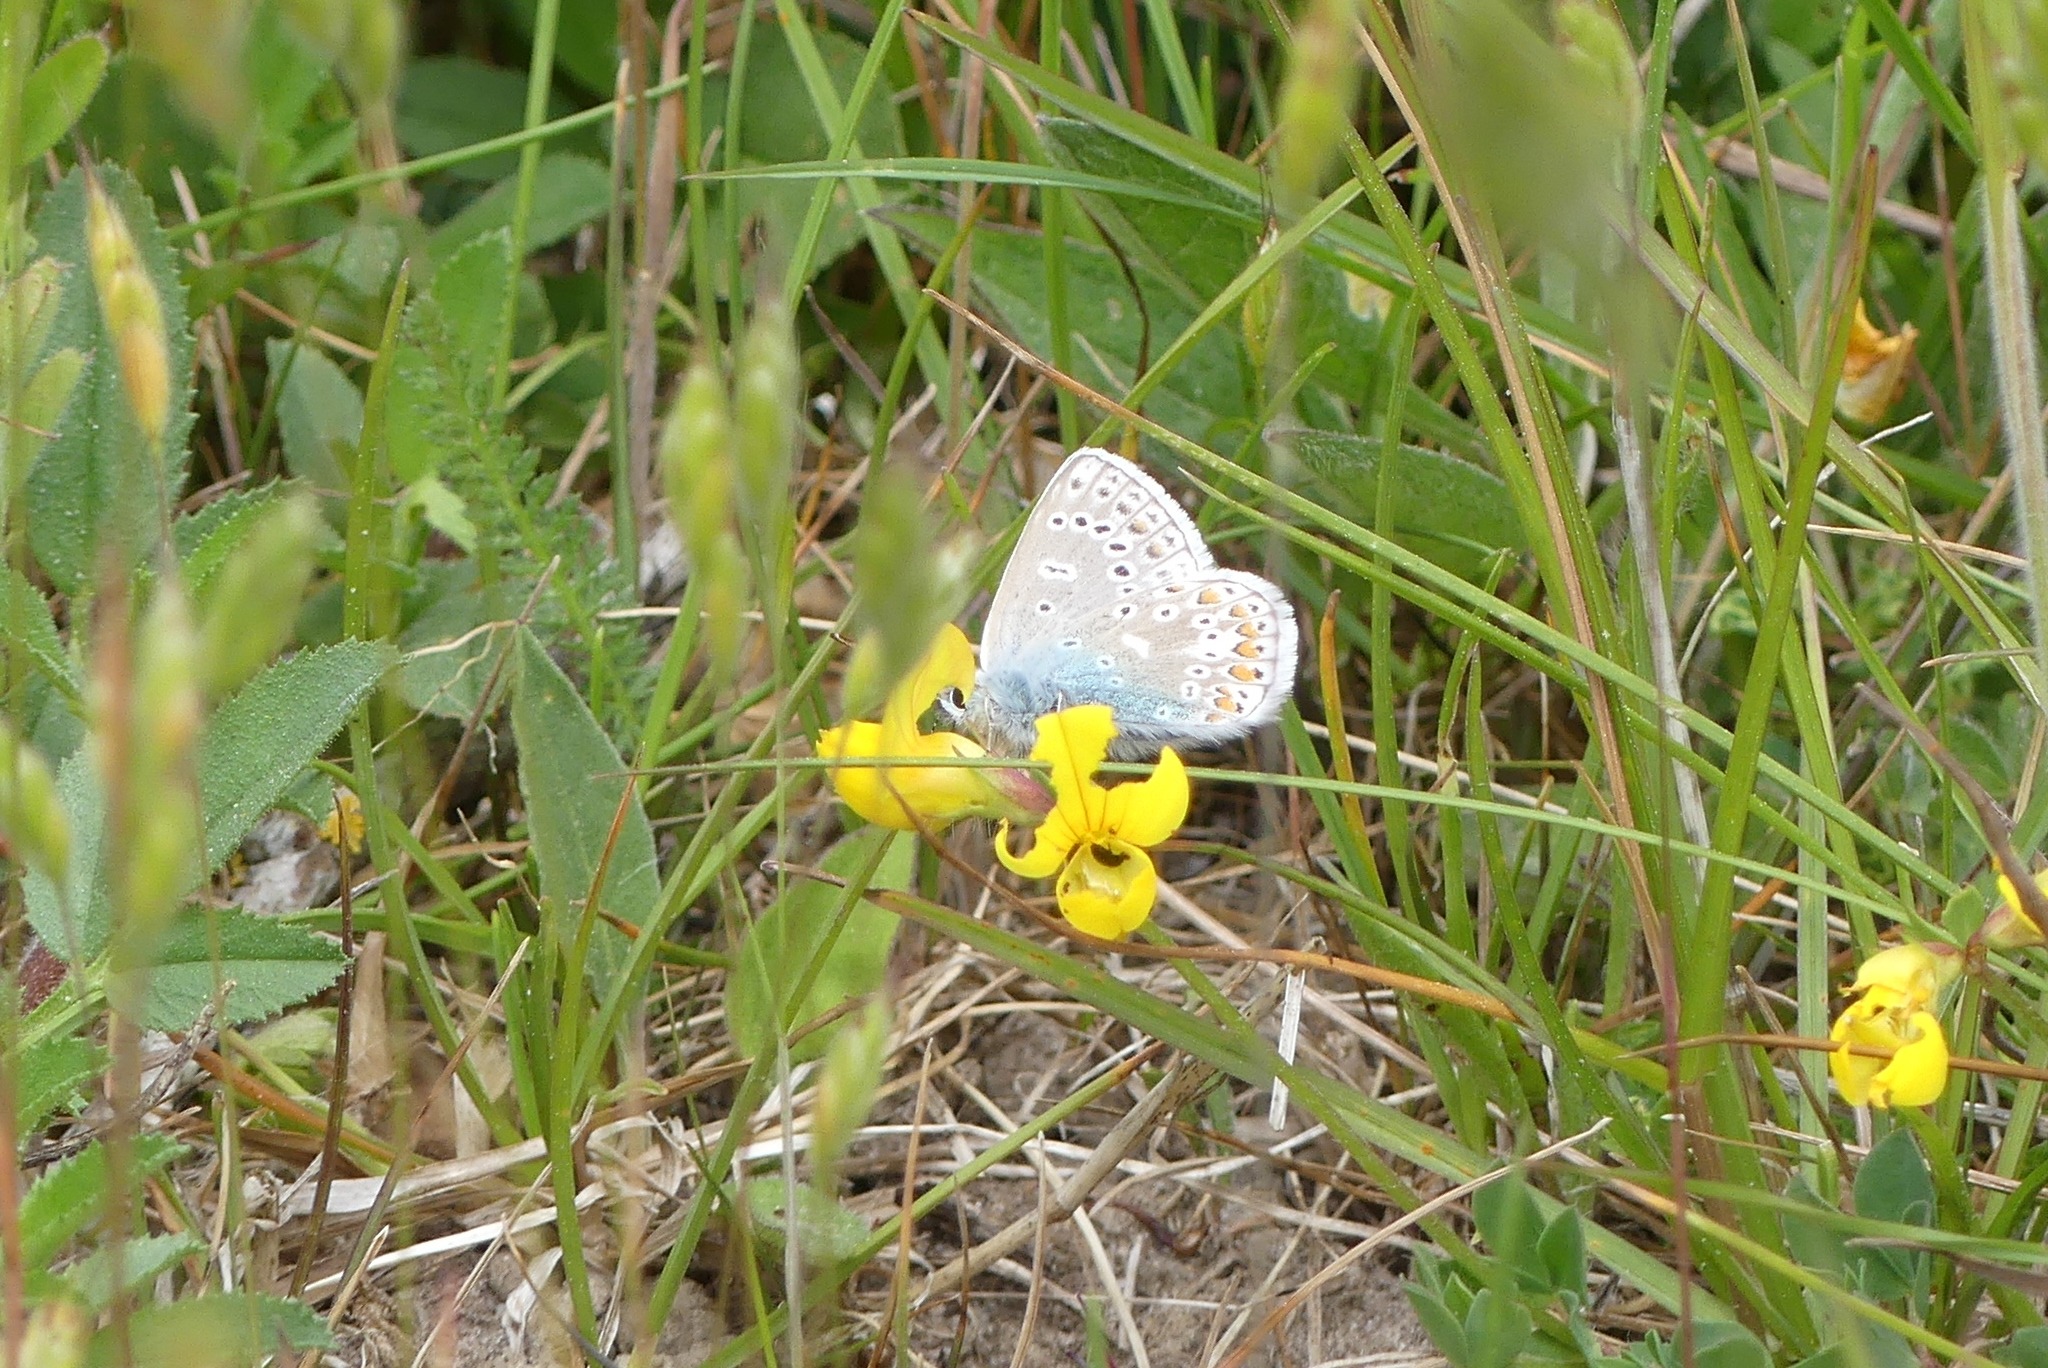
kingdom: Animalia
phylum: Arthropoda
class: Insecta
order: Lepidoptera
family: Lycaenidae
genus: Polyommatus
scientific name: Polyommatus icarus
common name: Almindelig blåfugl
